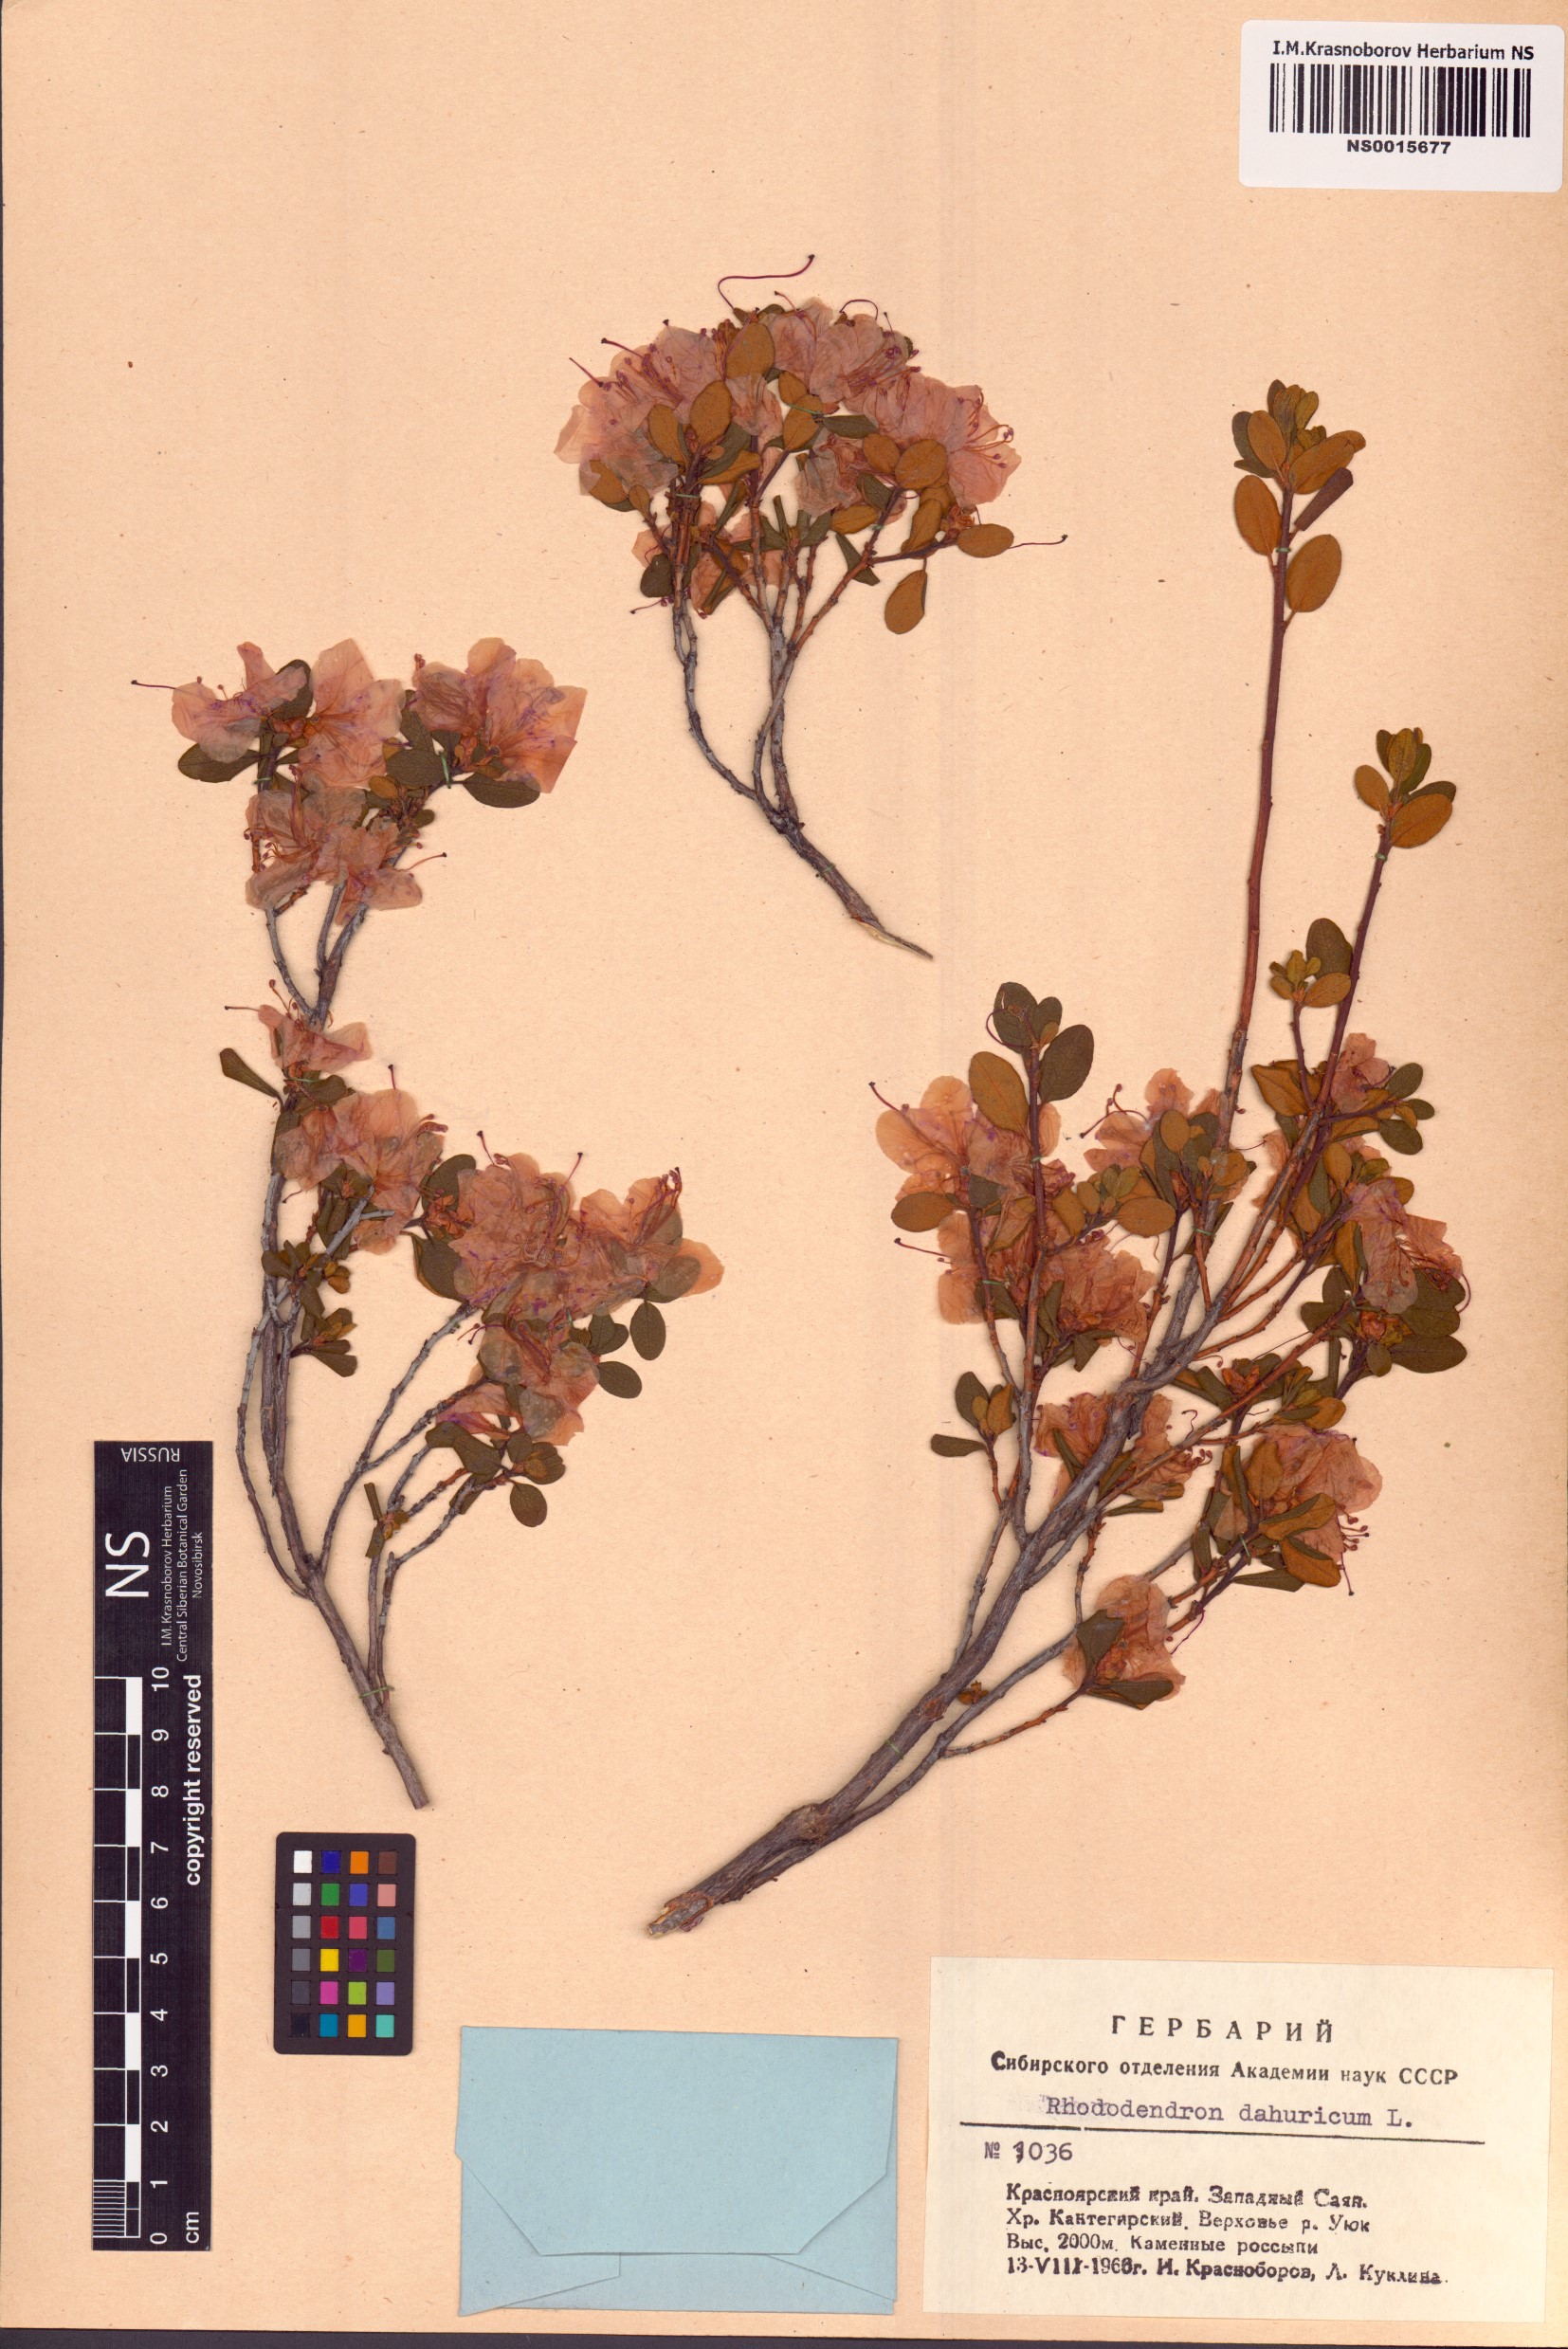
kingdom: Plantae
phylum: Tracheophyta
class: Magnoliopsida
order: Ericales
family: Ericaceae
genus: Rhododendron
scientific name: Rhododendron dauricum
